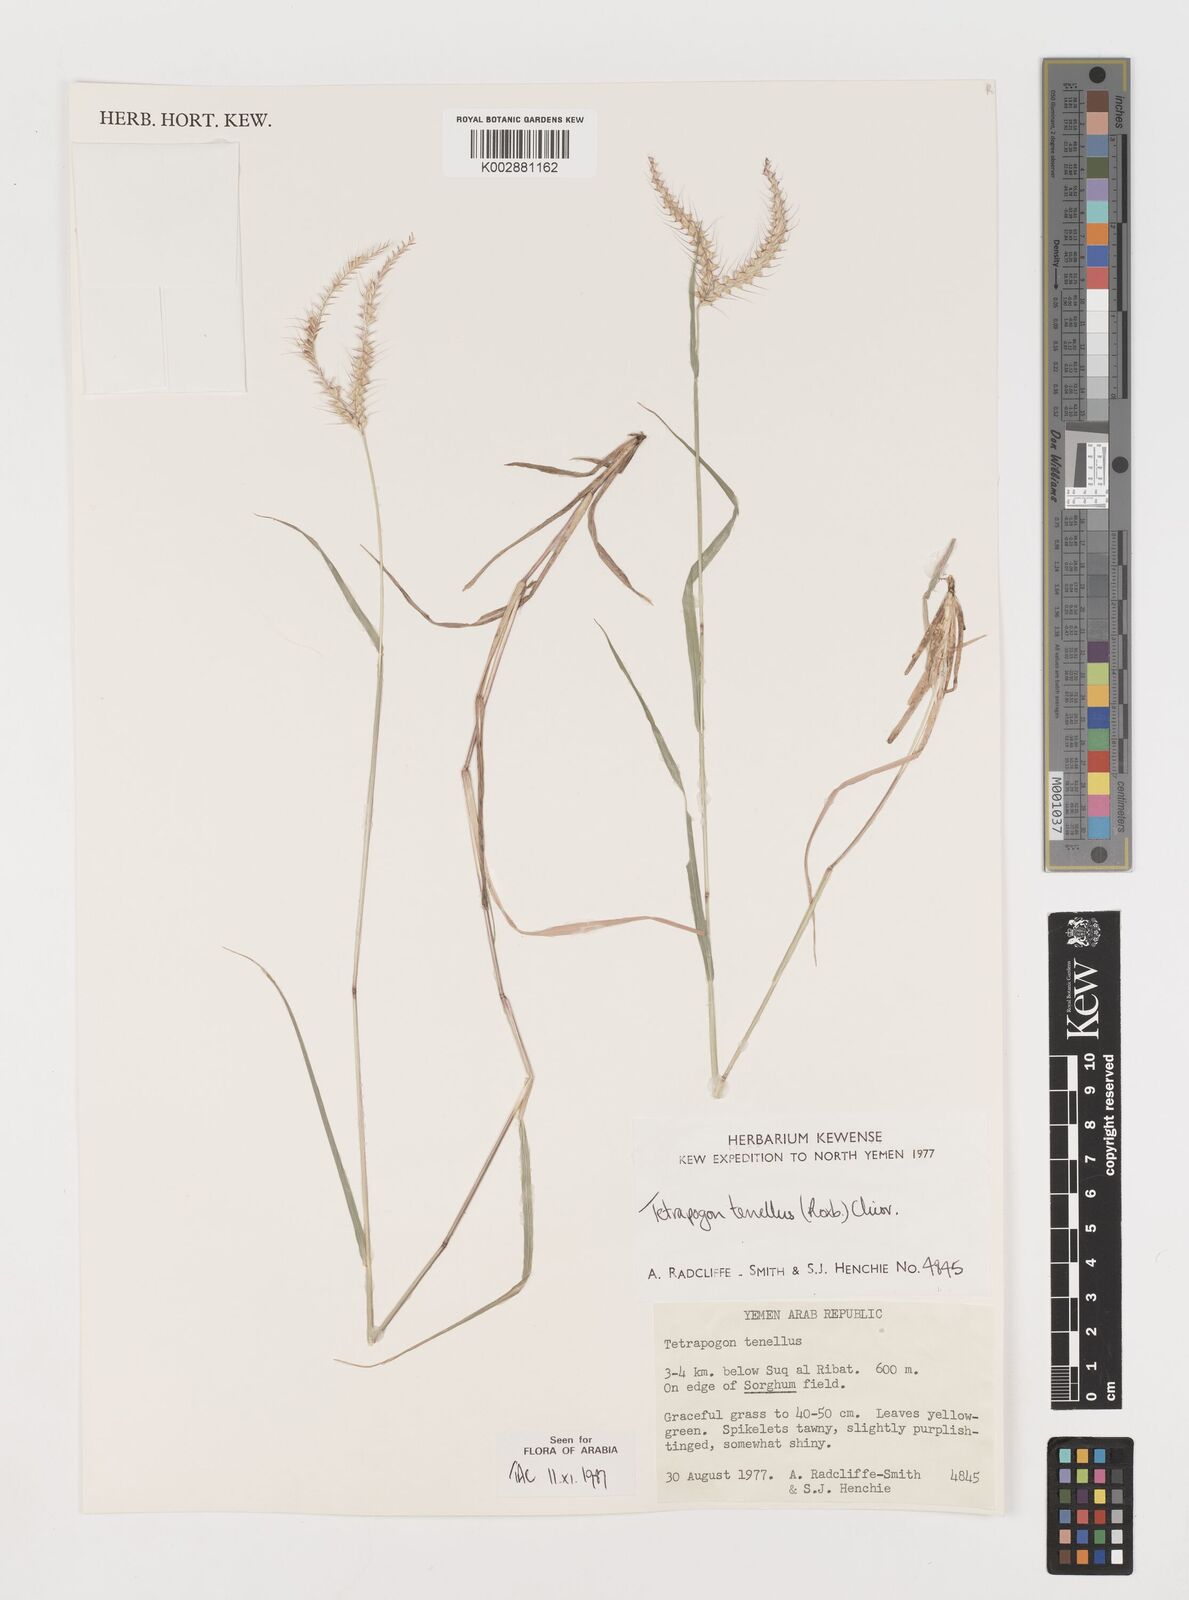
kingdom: Plantae
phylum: Tracheophyta
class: Liliopsida
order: Poales
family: Poaceae
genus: Tetrapogon
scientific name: Tetrapogon tenellus
